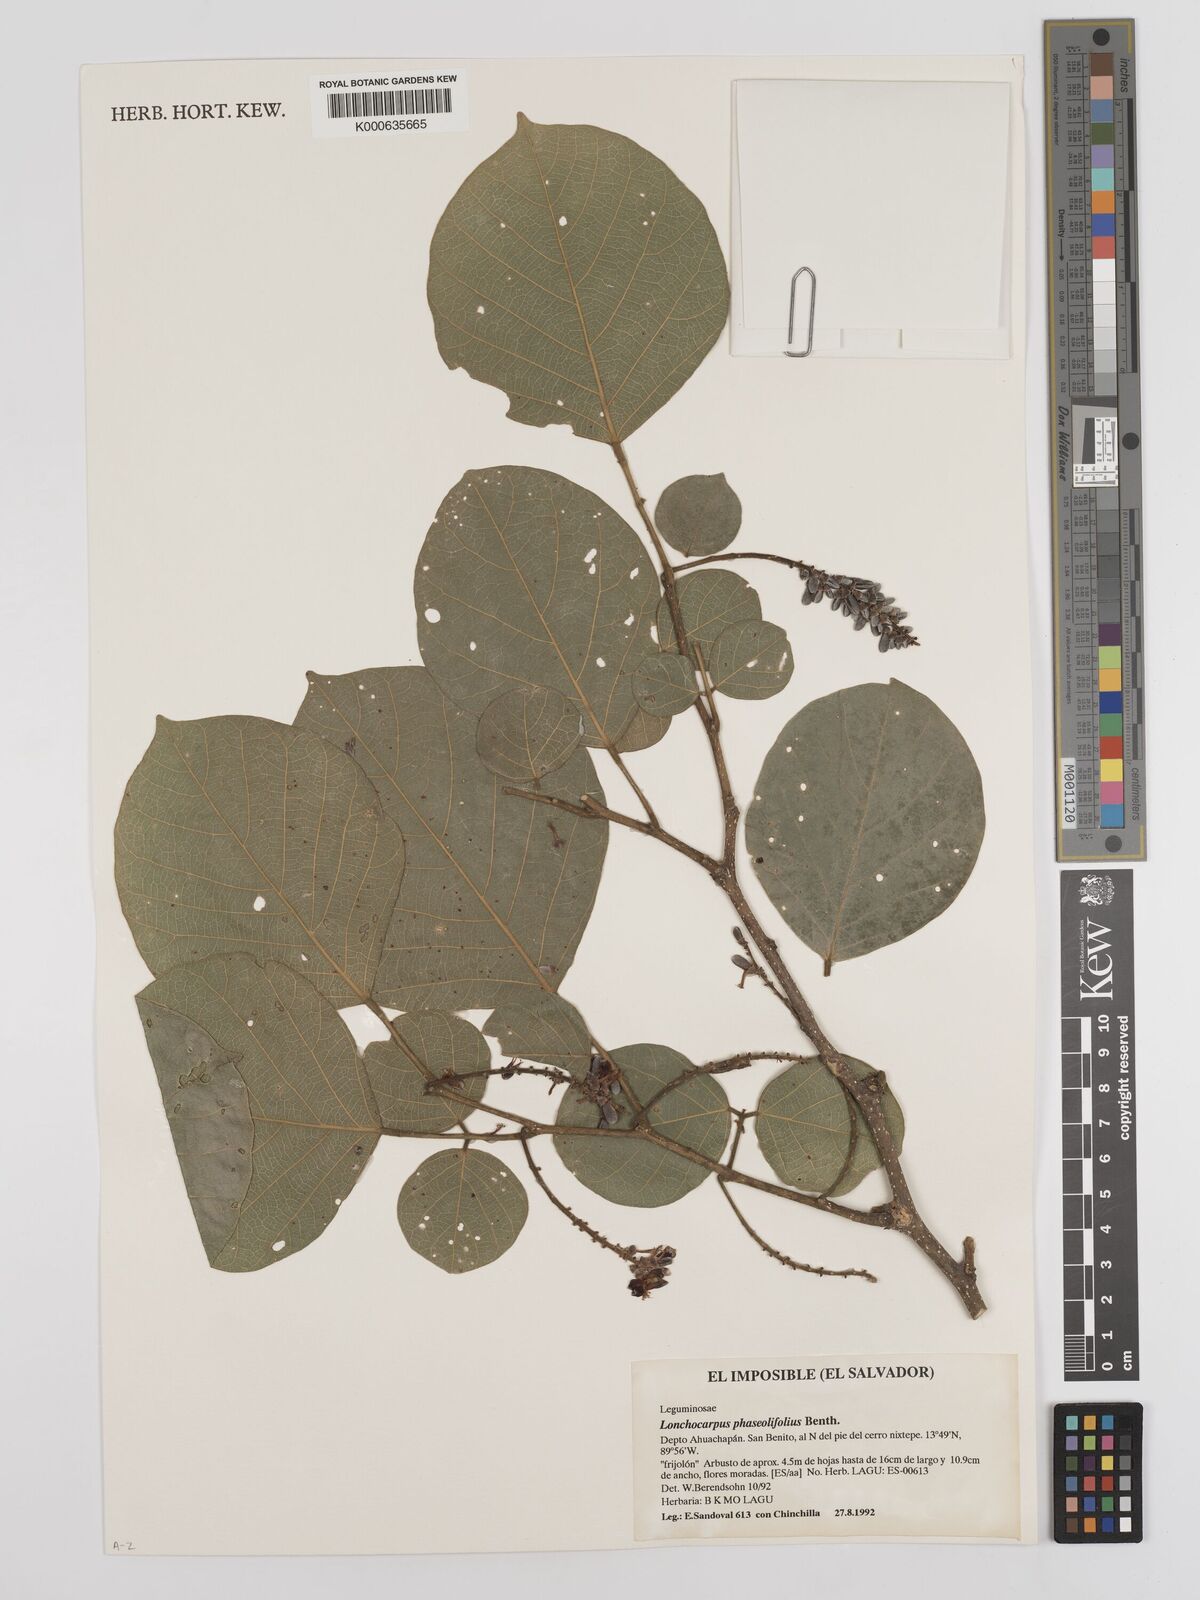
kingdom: Plantae
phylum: Tracheophyta
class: Magnoliopsida
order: Fabales
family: Fabaceae
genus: Lonchocarpus
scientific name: Lonchocarpus phaseolifolius
